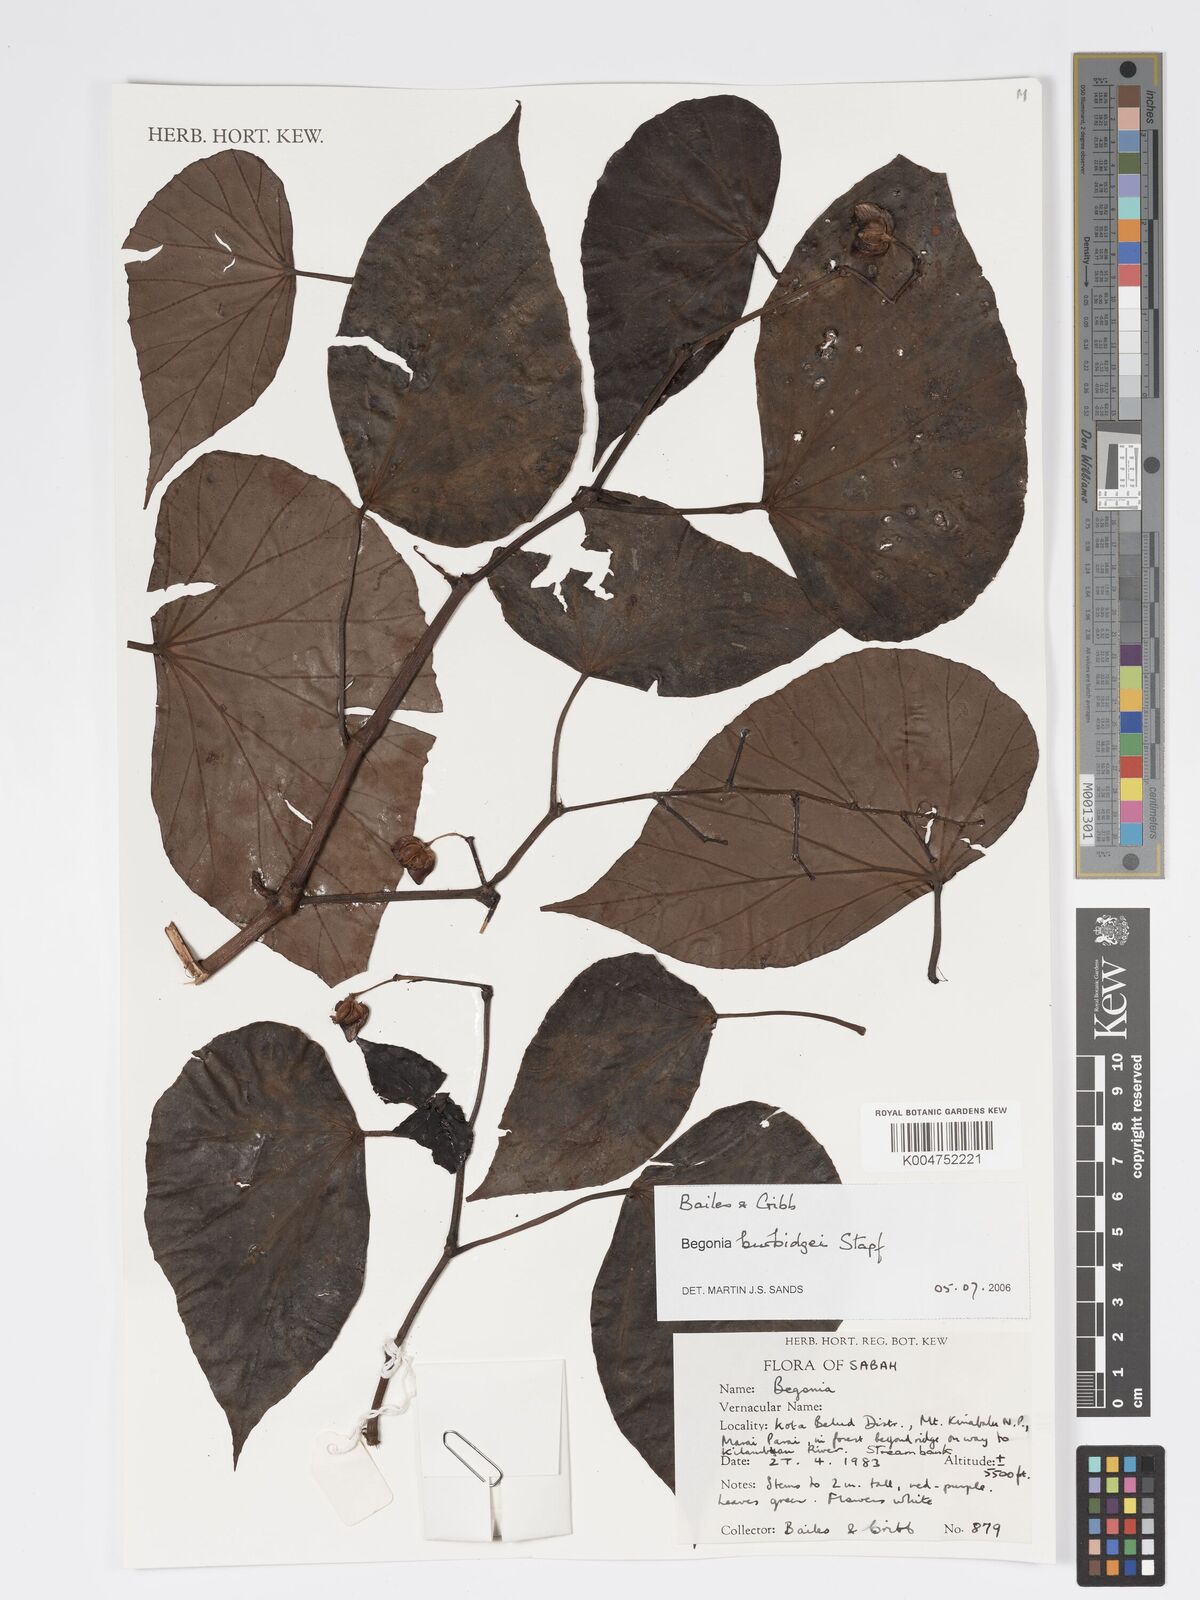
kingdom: Plantae
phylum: Tracheophyta
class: Magnoliopsida
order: Cucurbitales
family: Begoniaceae
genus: Begonia
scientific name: Begonia burbidgei
